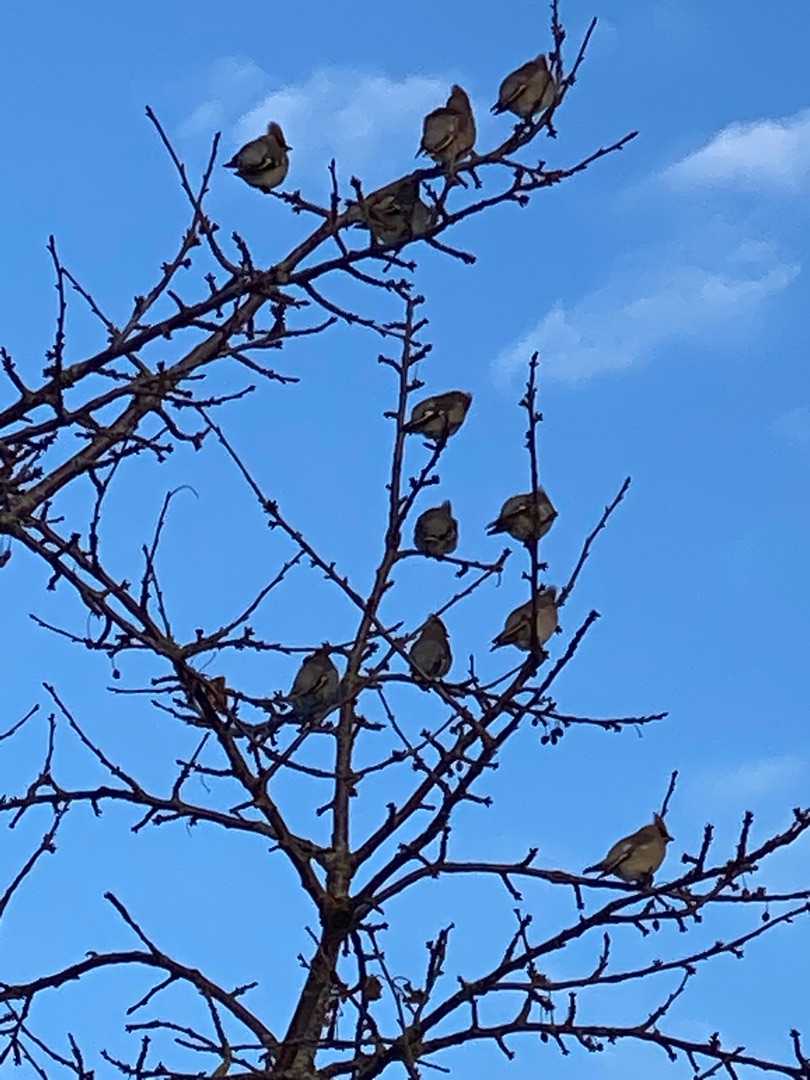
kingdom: Animalia
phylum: Chordata
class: Aves
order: Passeriformes
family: Bombycillidae
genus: Bombycilla
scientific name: Bombycilla garrulus
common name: Silkehale
